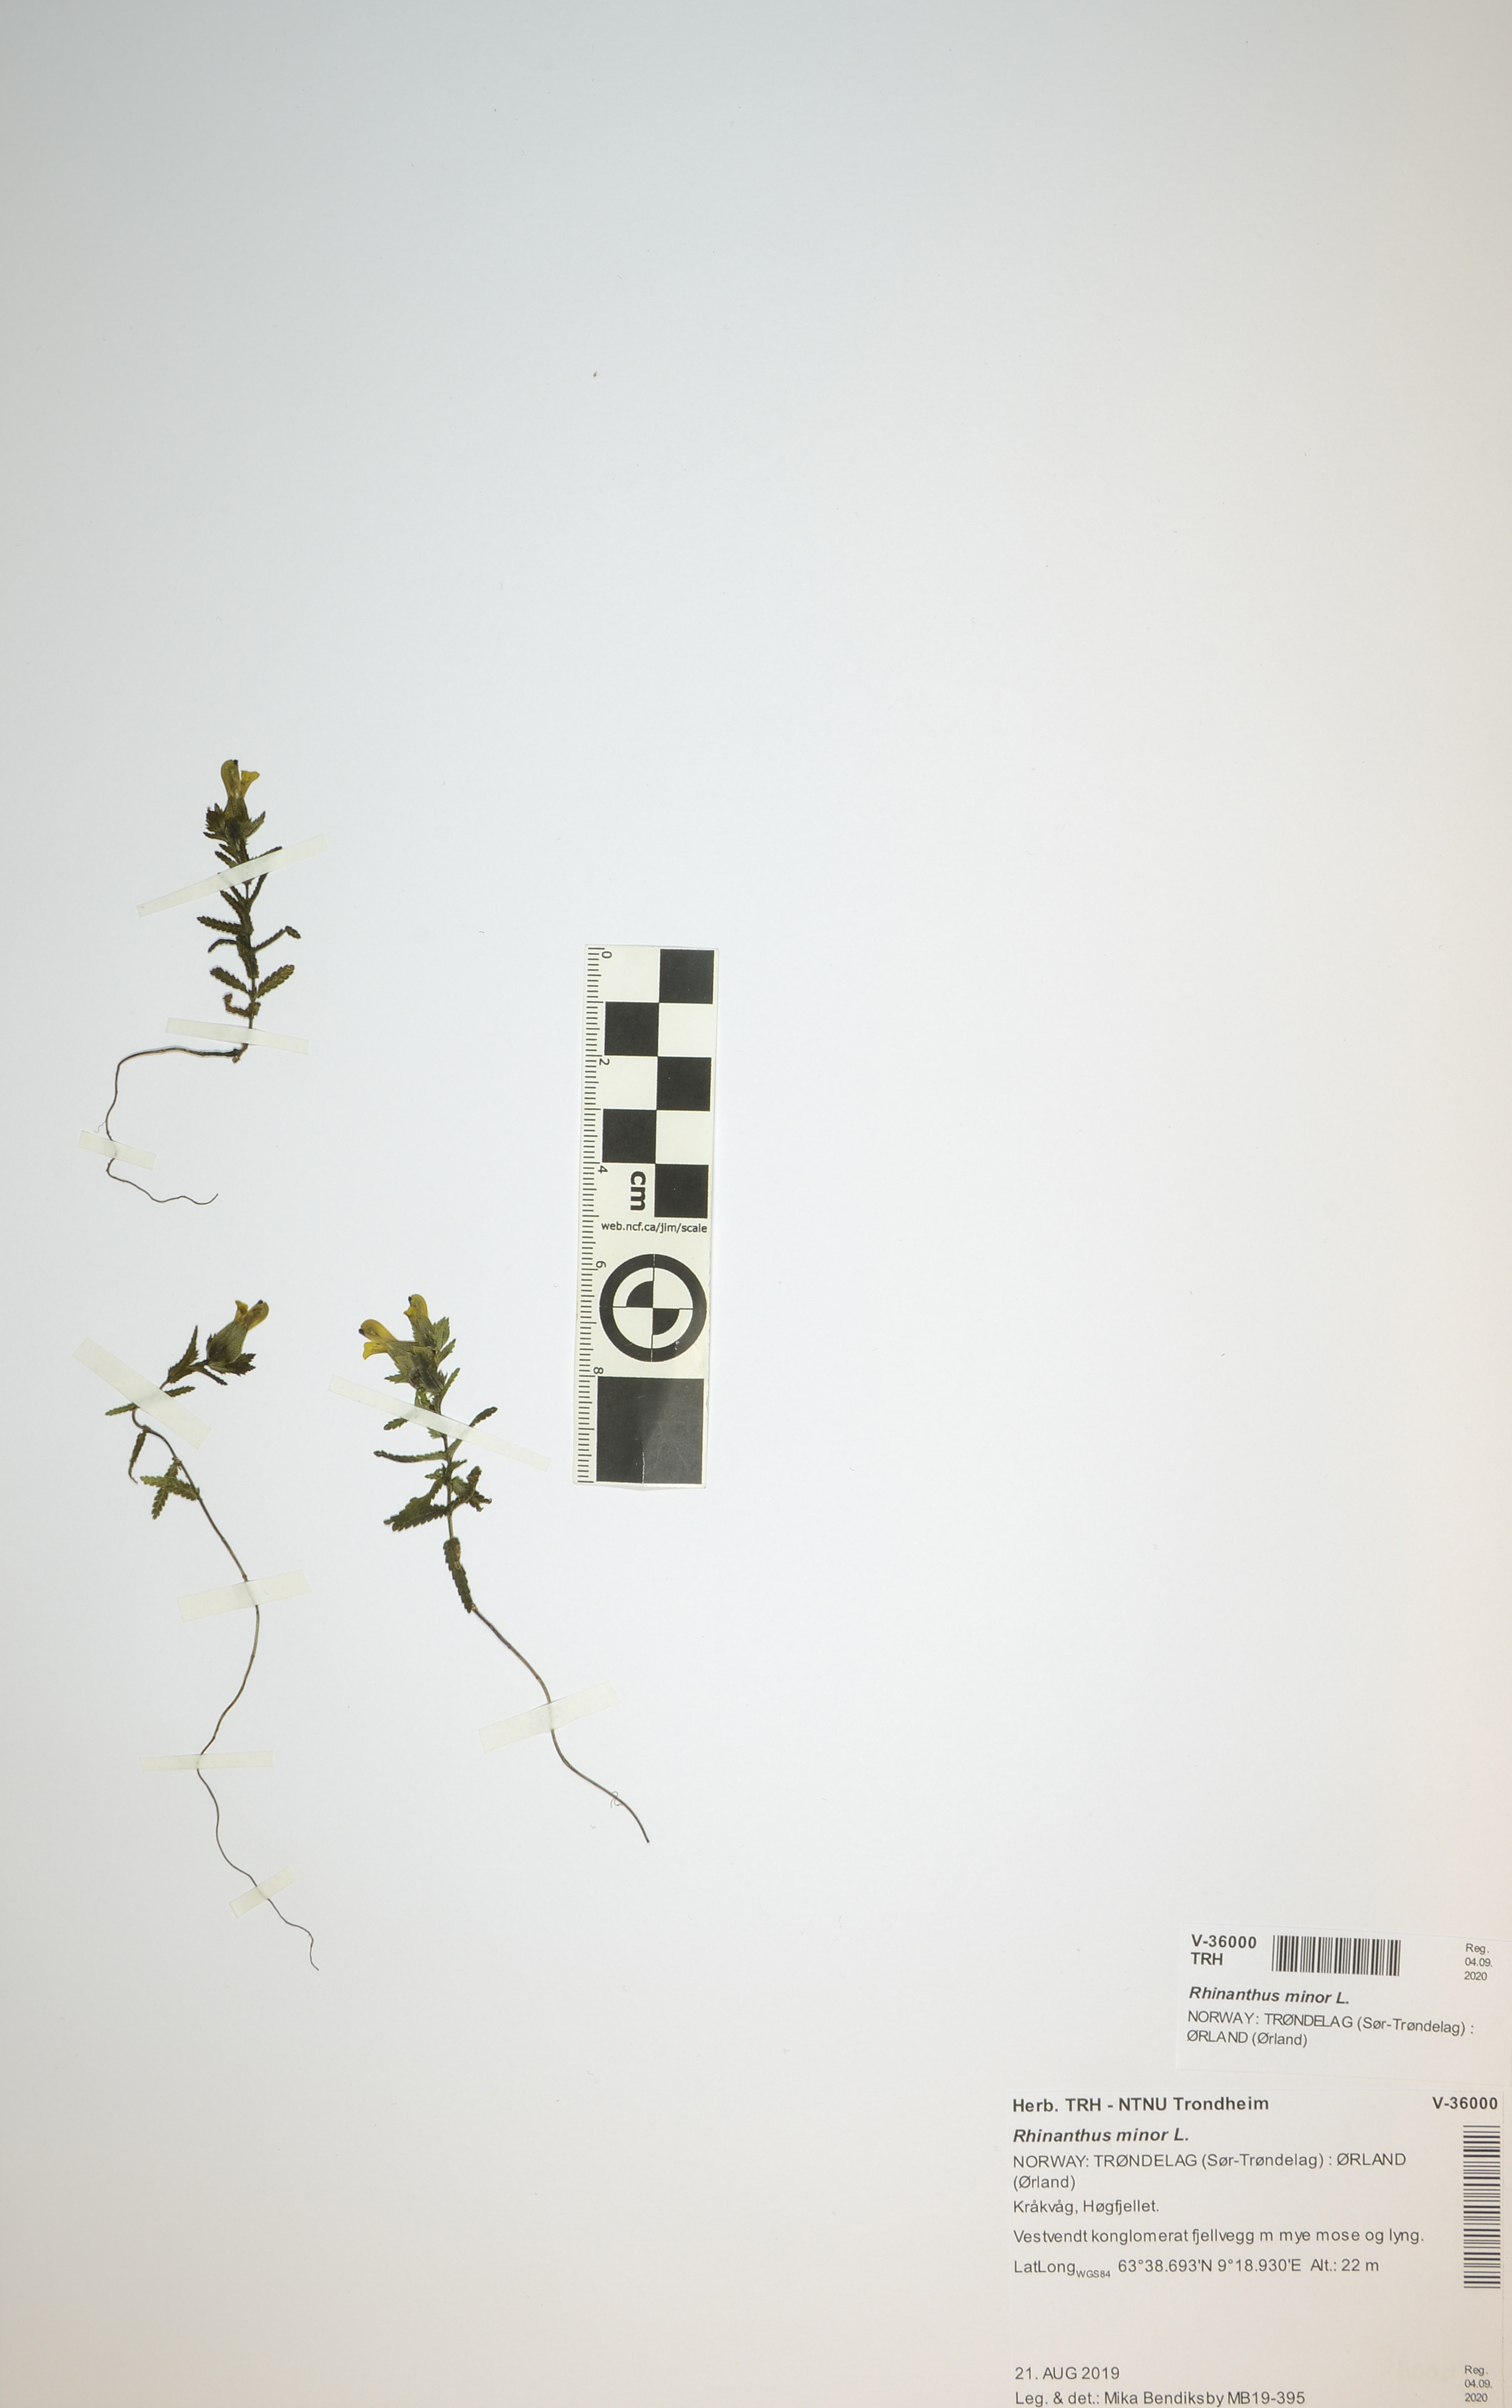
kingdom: Plantae
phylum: Tracheophyta
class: Magnoliopsida
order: Lamiales
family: Orobanchaceae
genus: Rhinanthus
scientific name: Rhinanthus minor
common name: Yellow-rattle
